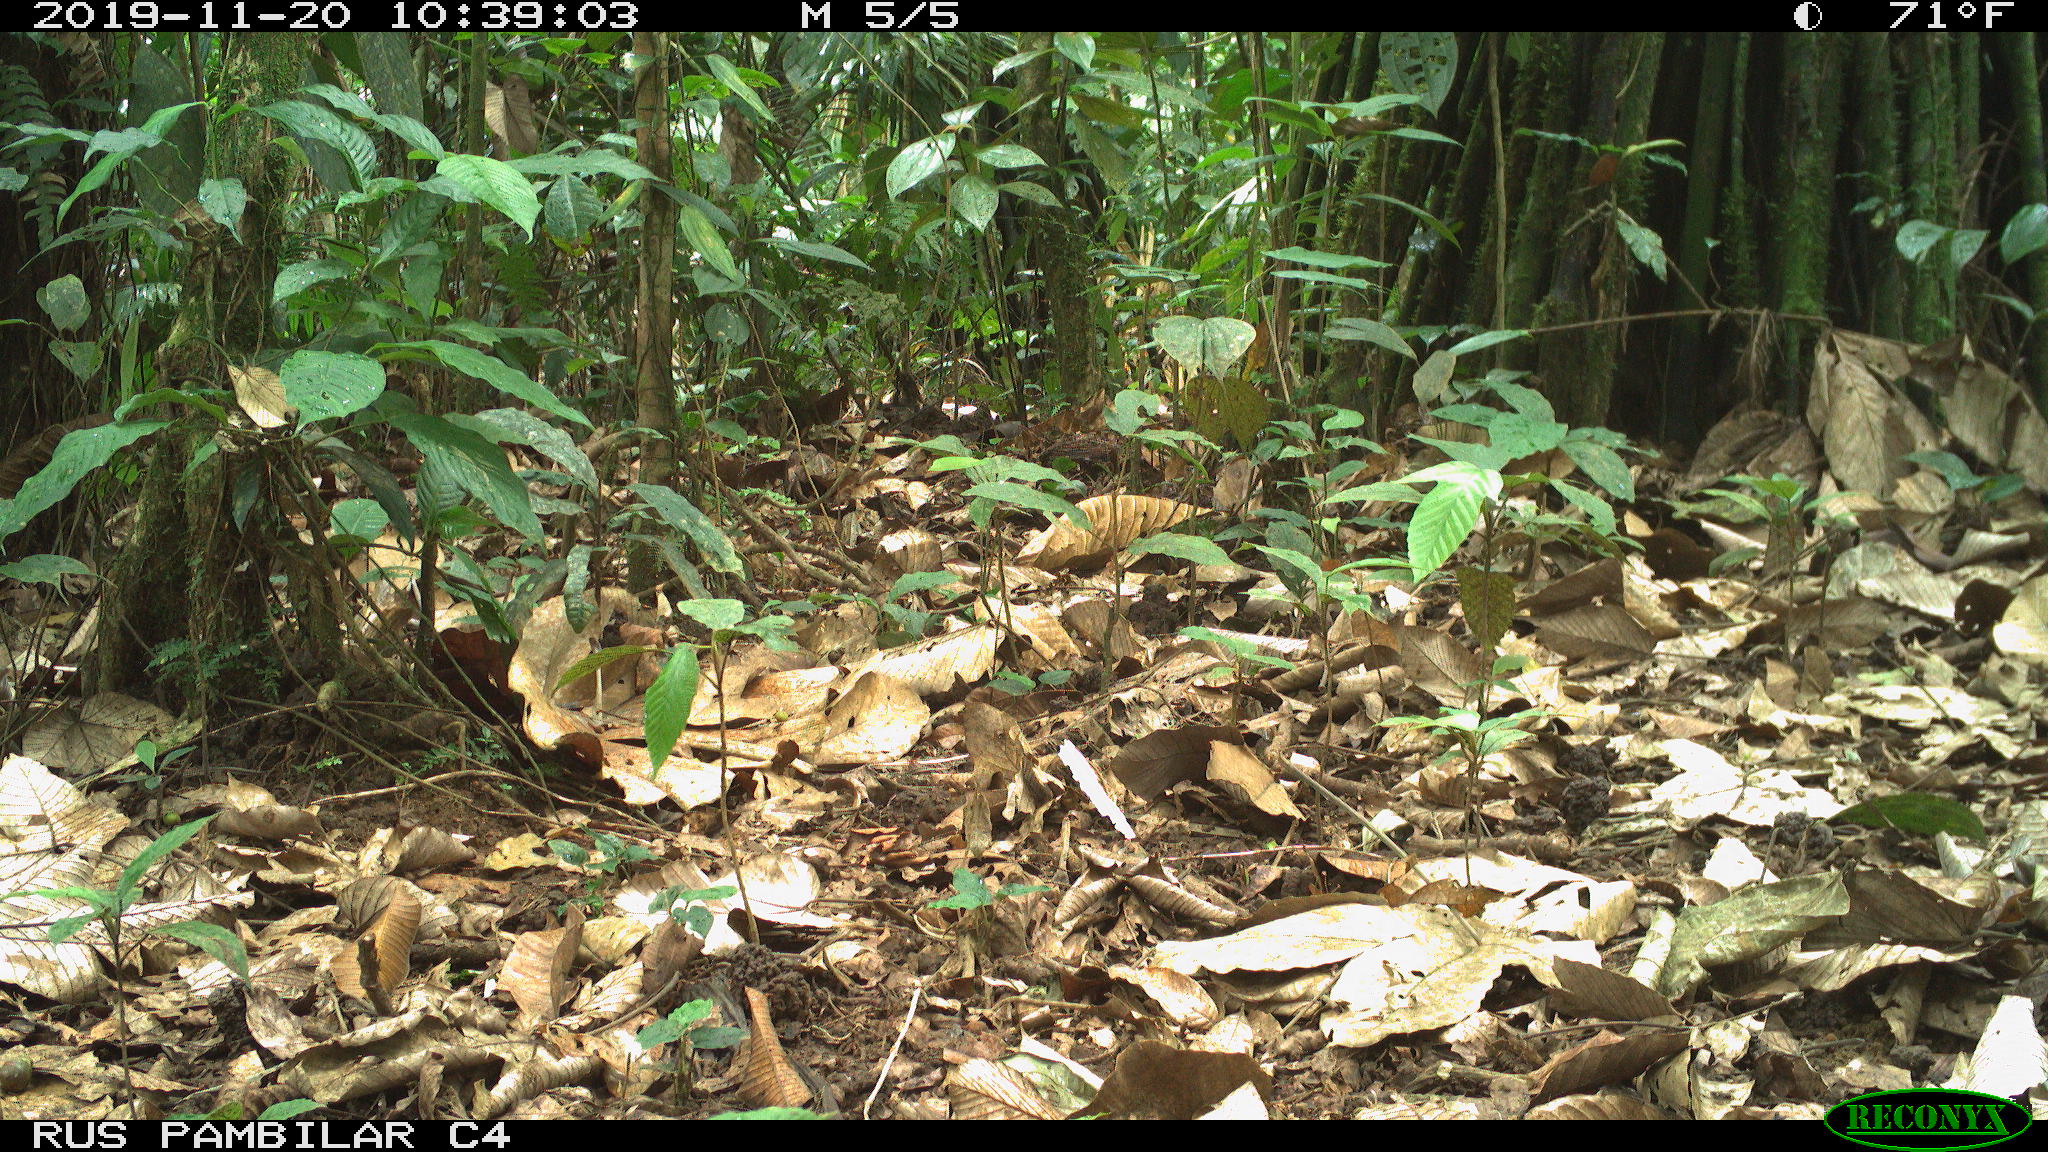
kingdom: Animalia
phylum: Chordata
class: Mammalia
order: Rodentia
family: Dasyproctidae
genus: Dasyprocta
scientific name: Dasyprocta punctata
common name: Central american agouti
